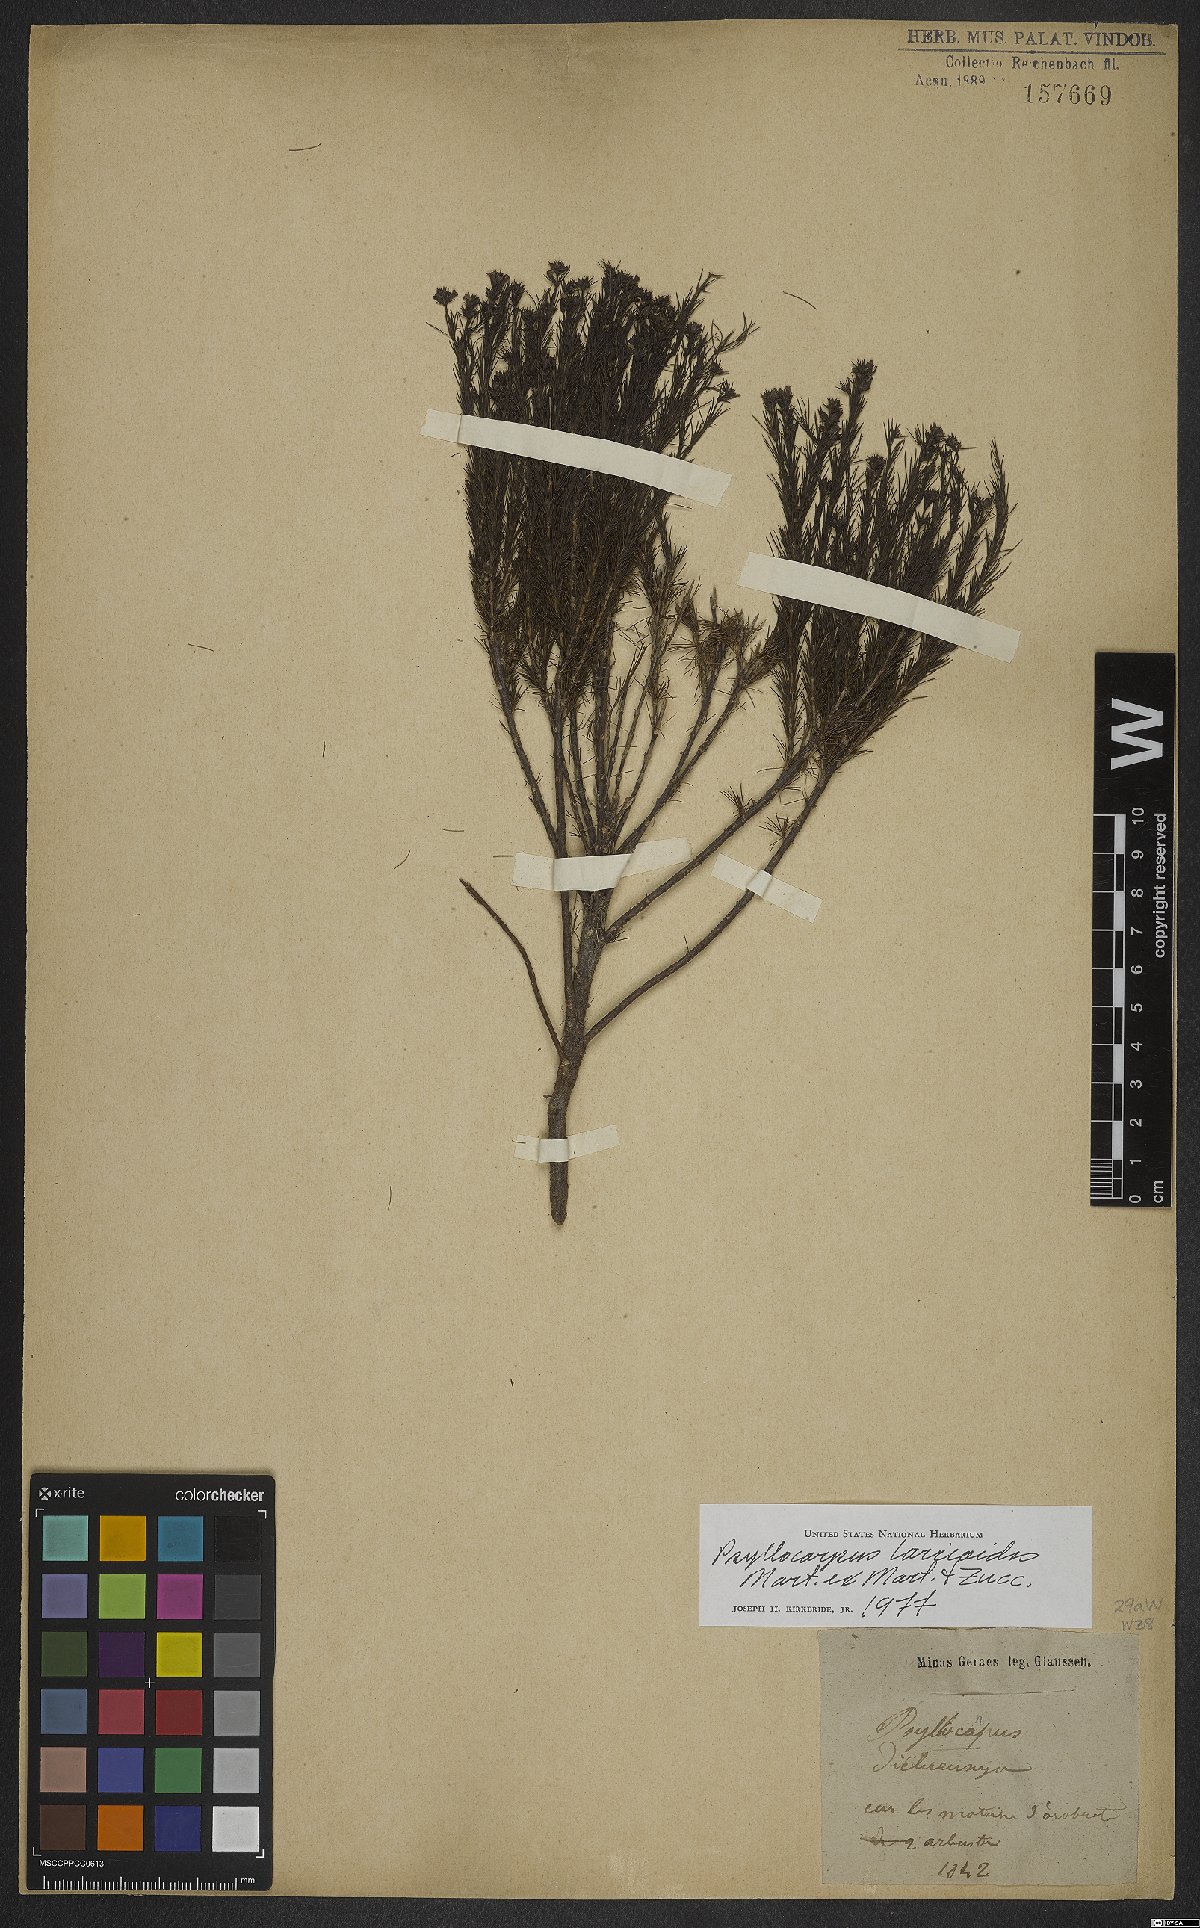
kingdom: Plantae
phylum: Tracheophyta
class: Magnoliopsida
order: Gentianales
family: Rubiaceae
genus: Psyllocarpus
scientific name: Psyllocarpus laricoides
